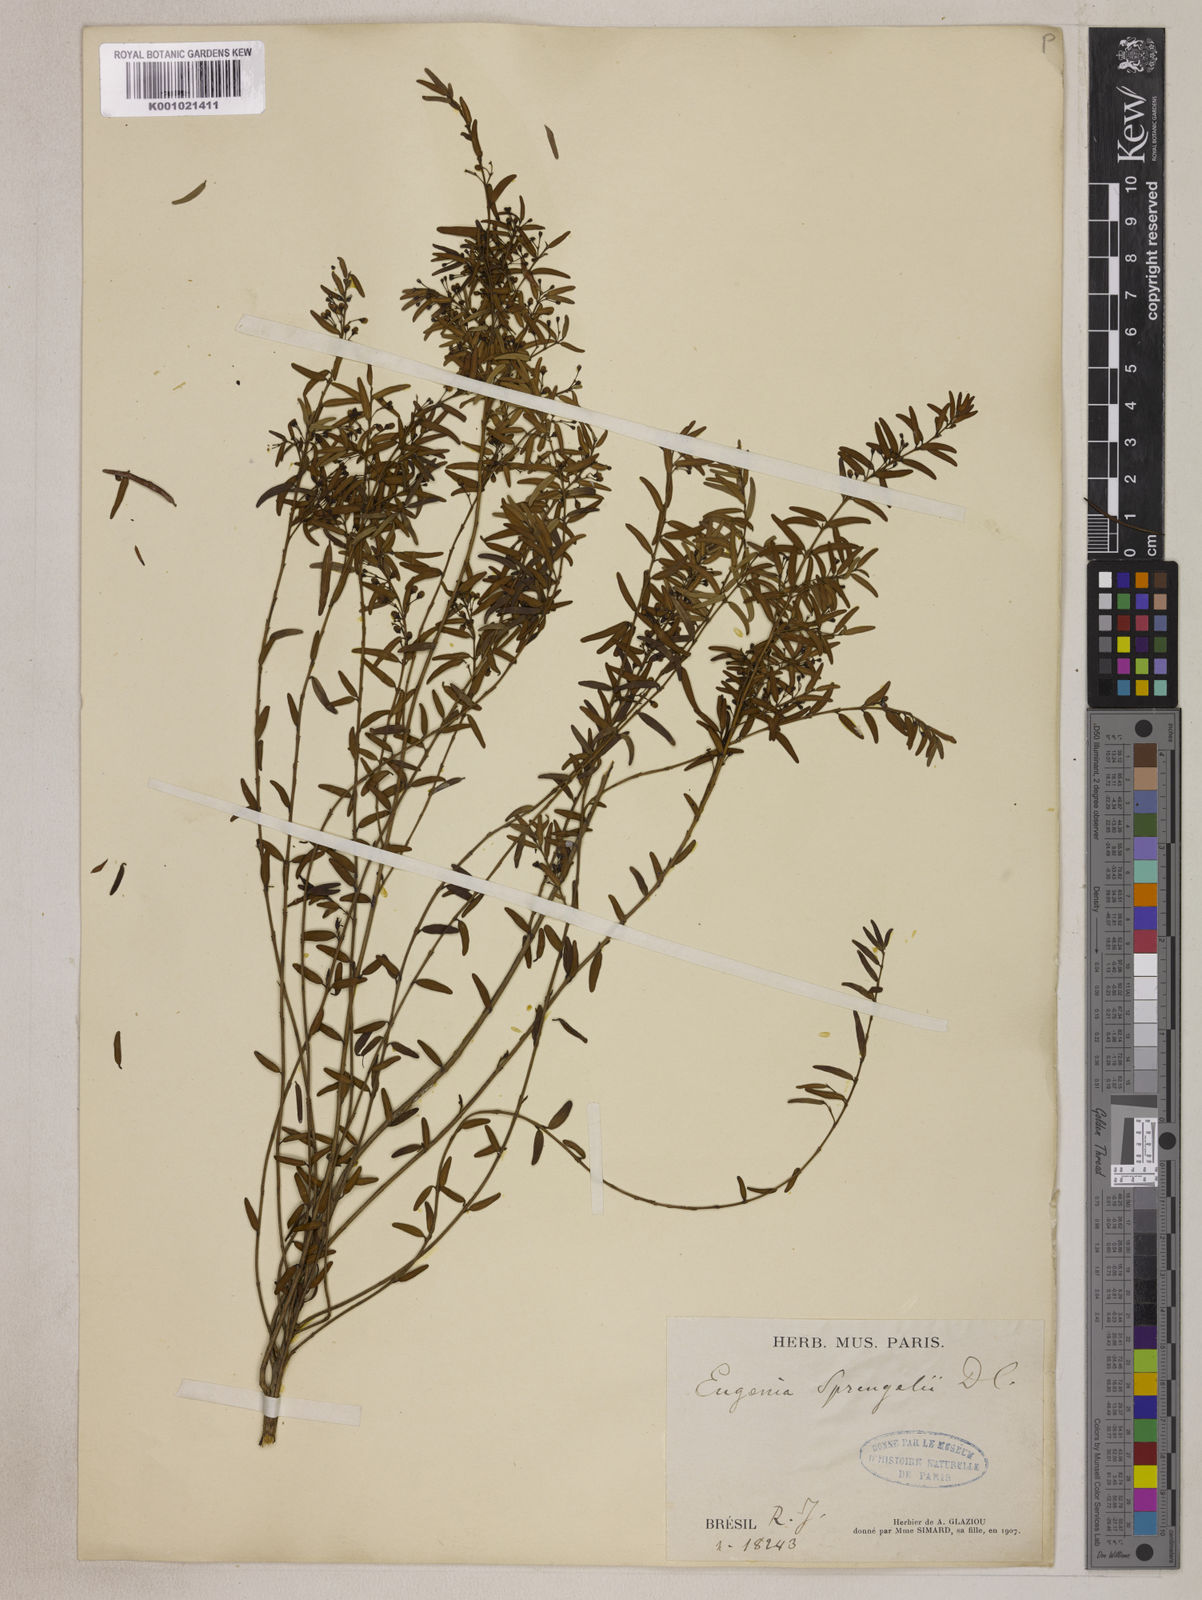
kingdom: Plantae
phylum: Tracheophyta
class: Magnoliopsida
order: Myrtales
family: Myrtaceae
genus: Eugenia
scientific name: Eugenia sprengelii
